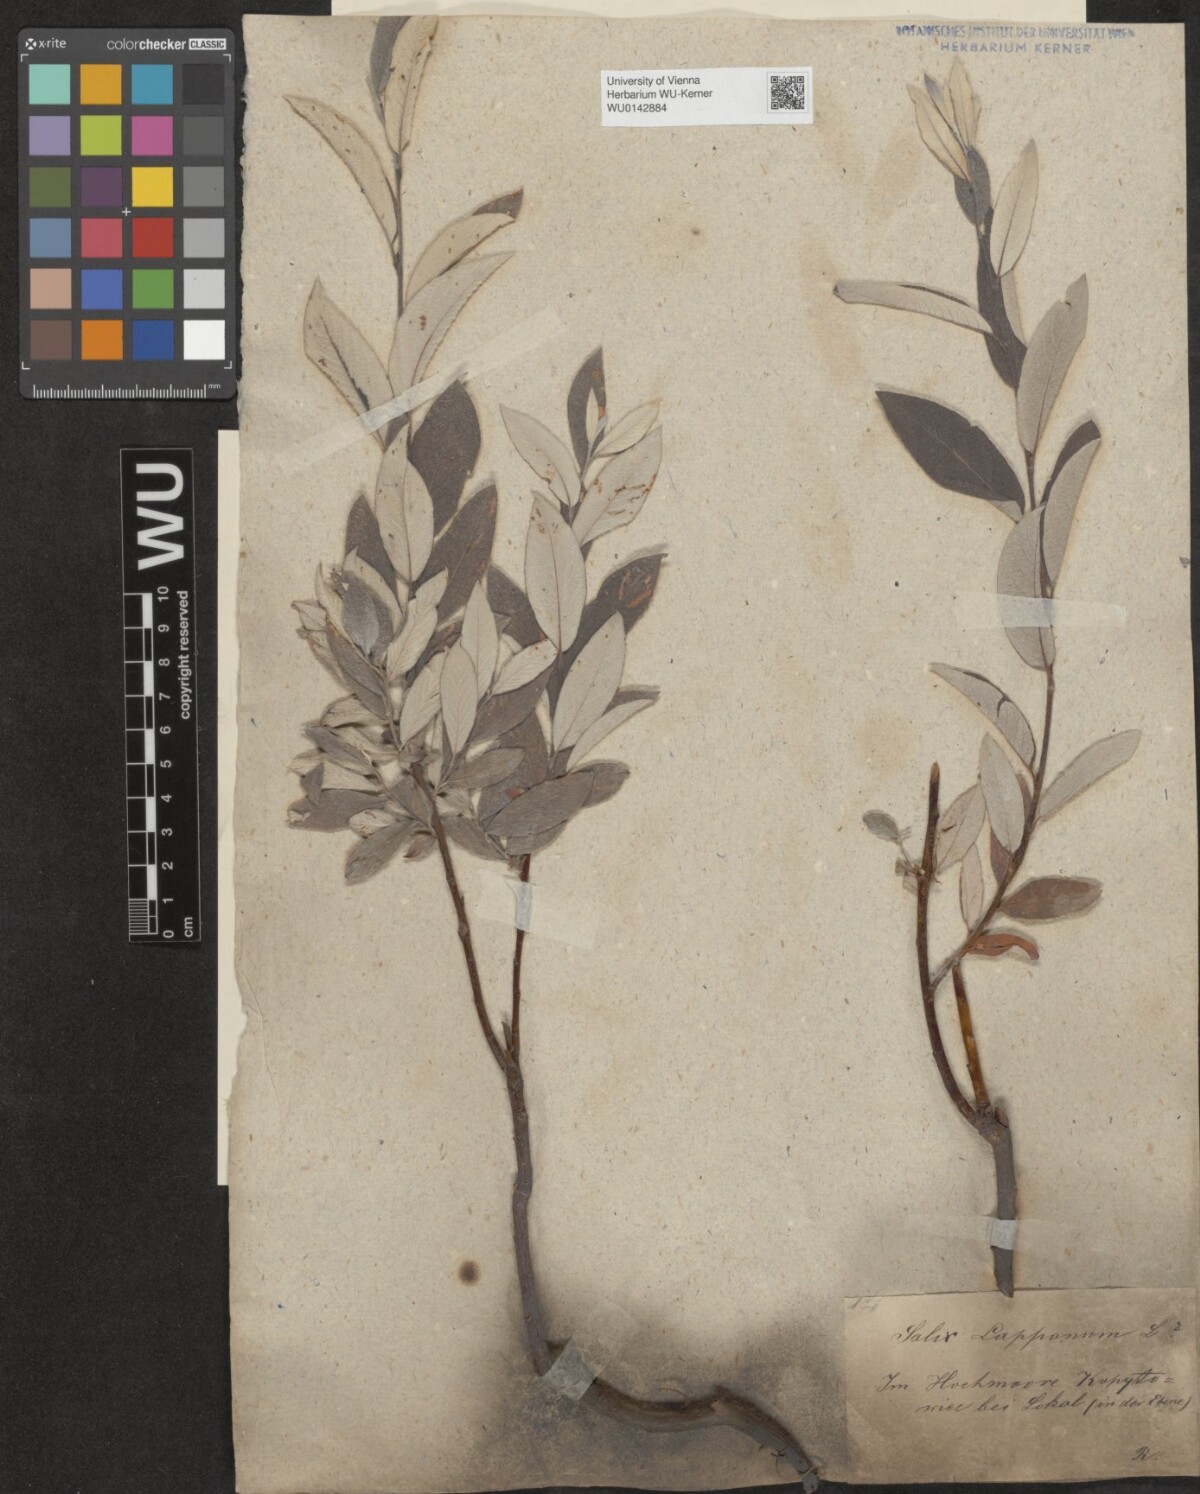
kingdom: Plantae
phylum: Tracheophyta
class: Magnoliopsida
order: Malpighiales
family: Salicaceae
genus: Salix
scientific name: Salix lapponum
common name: Downy willow
